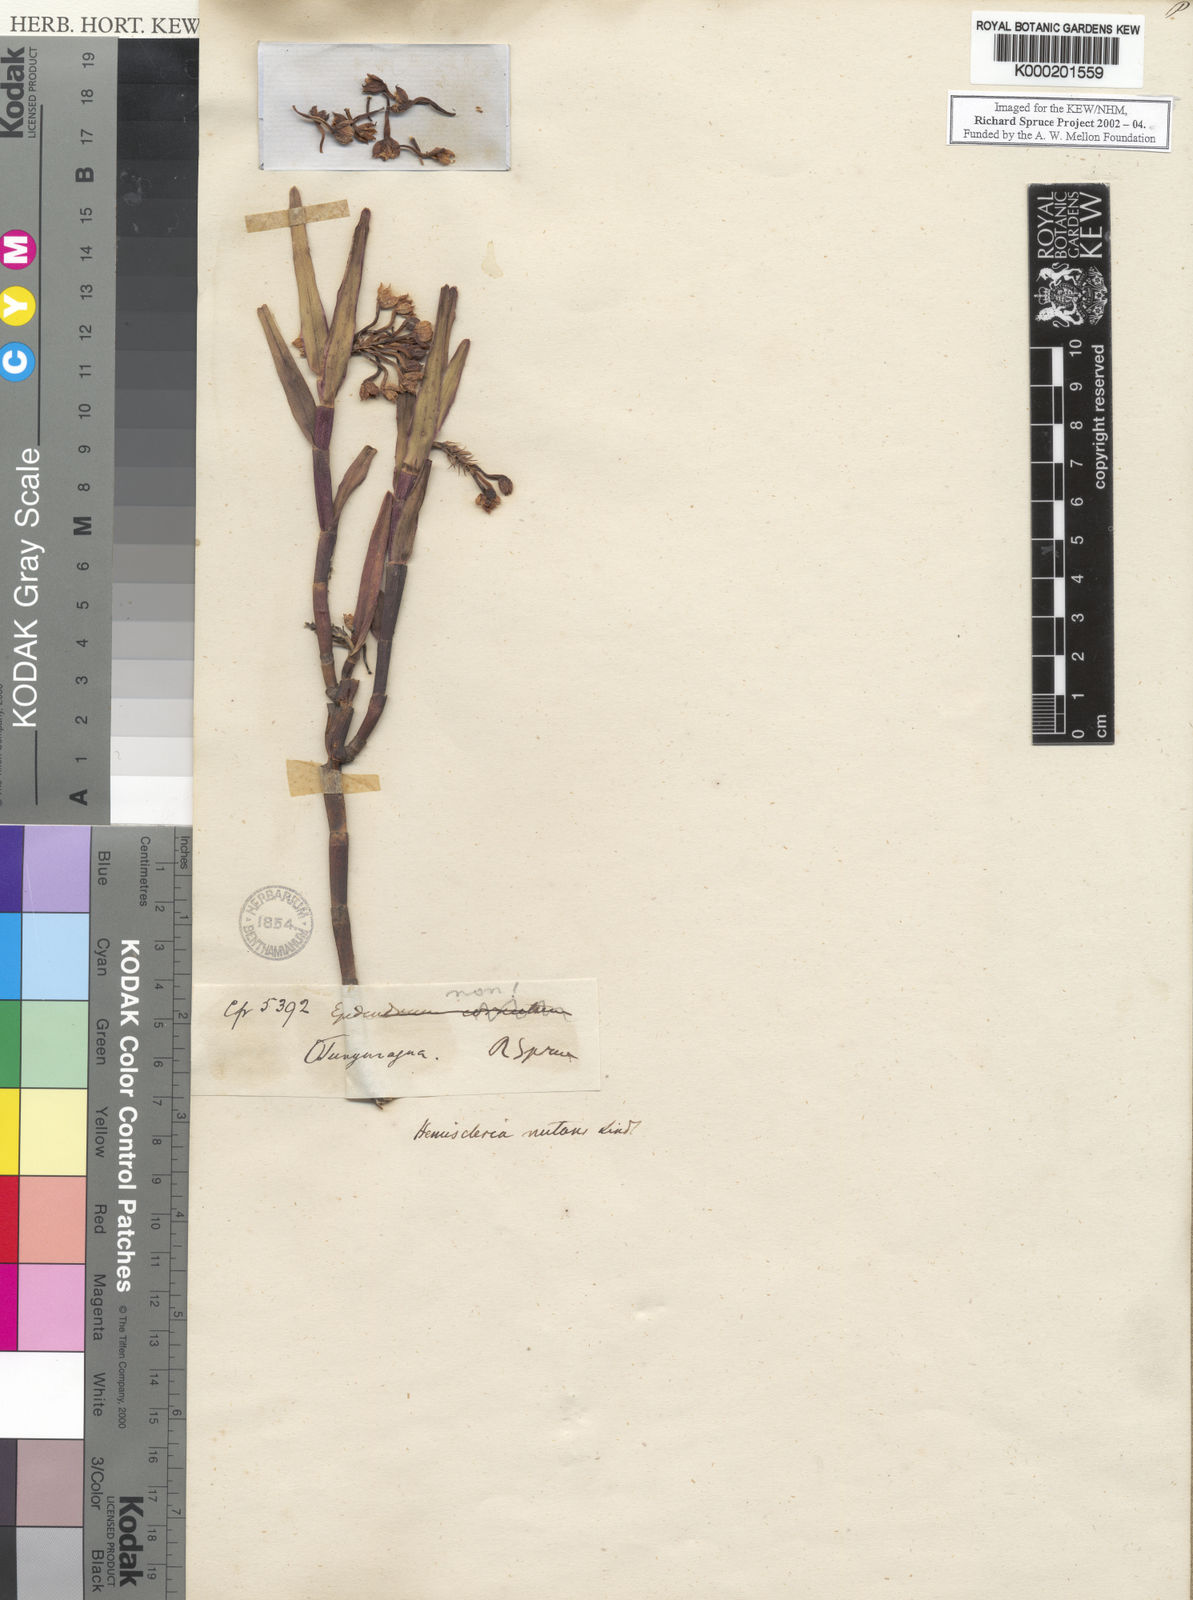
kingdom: Plantae
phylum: Tracheophyta
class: Liliopsida
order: Asparagales
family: Orchidaceae
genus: Epidendrum
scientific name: Epidendrum hemiscleria
